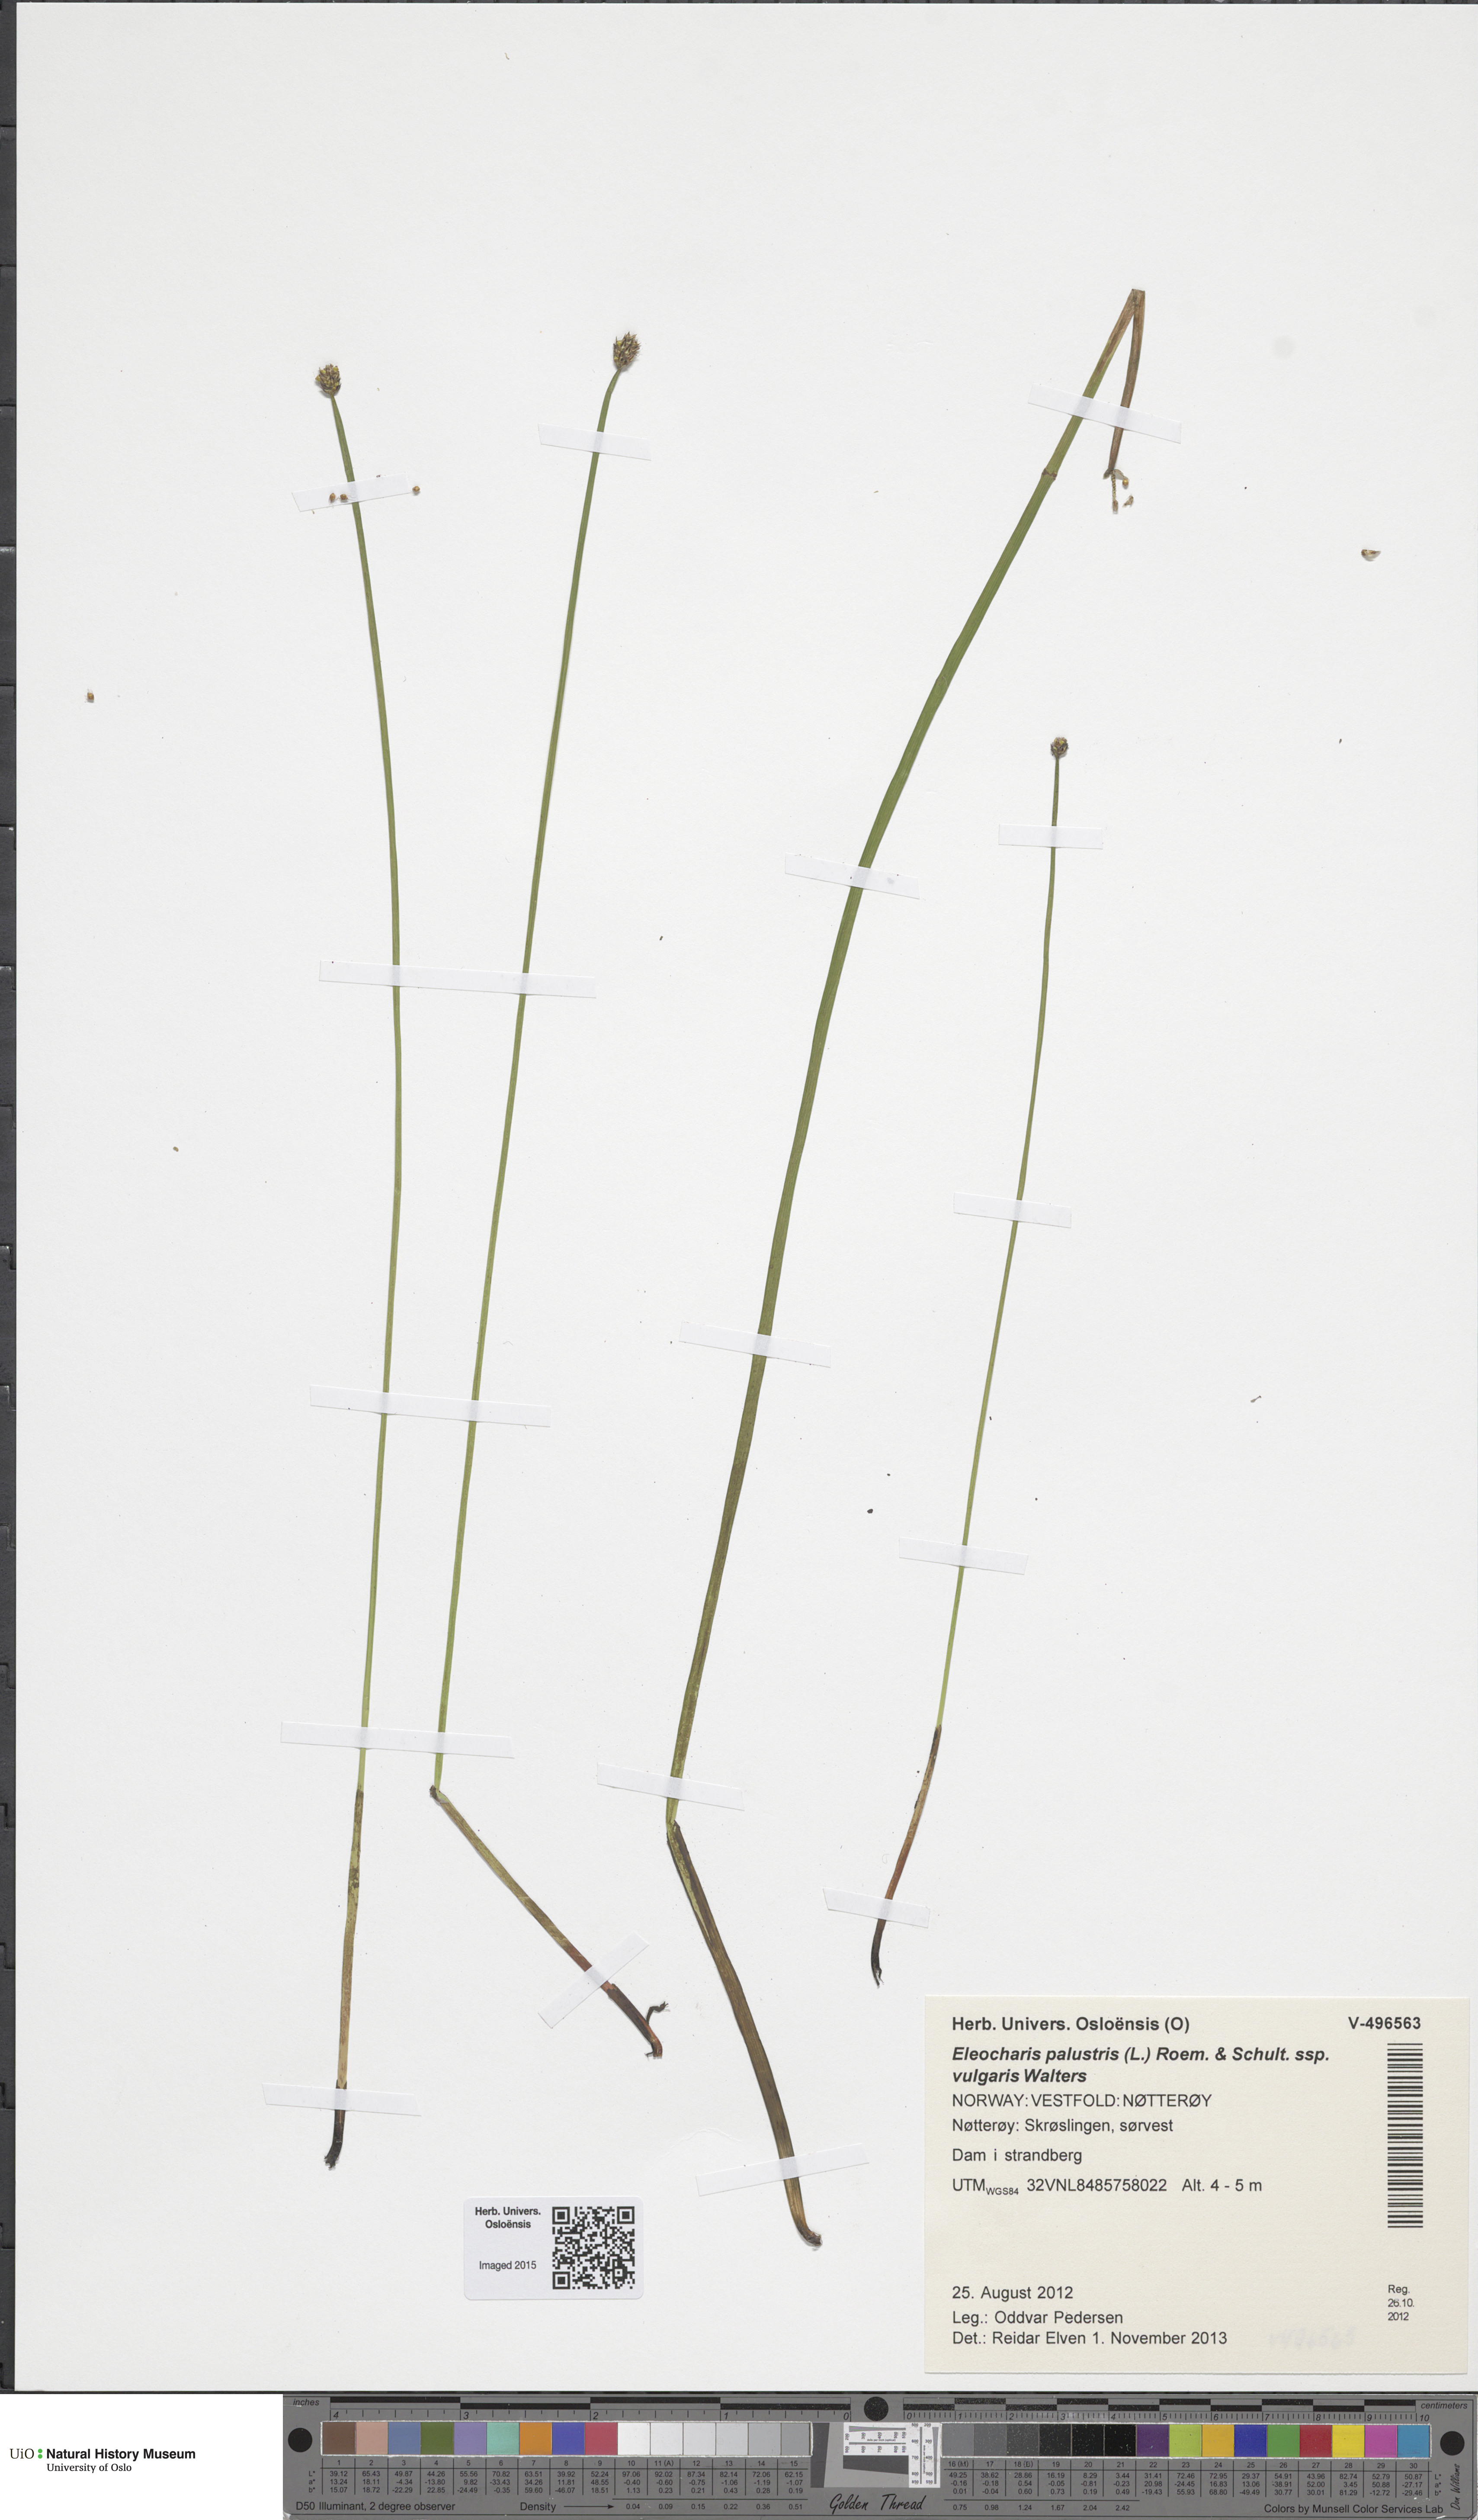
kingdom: Plantae
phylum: Tracheophyta
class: Liliopsida
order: Poales
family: Cyperaceae
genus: Eleocharis
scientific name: Eleocharis palustris
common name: Common spike-rush
